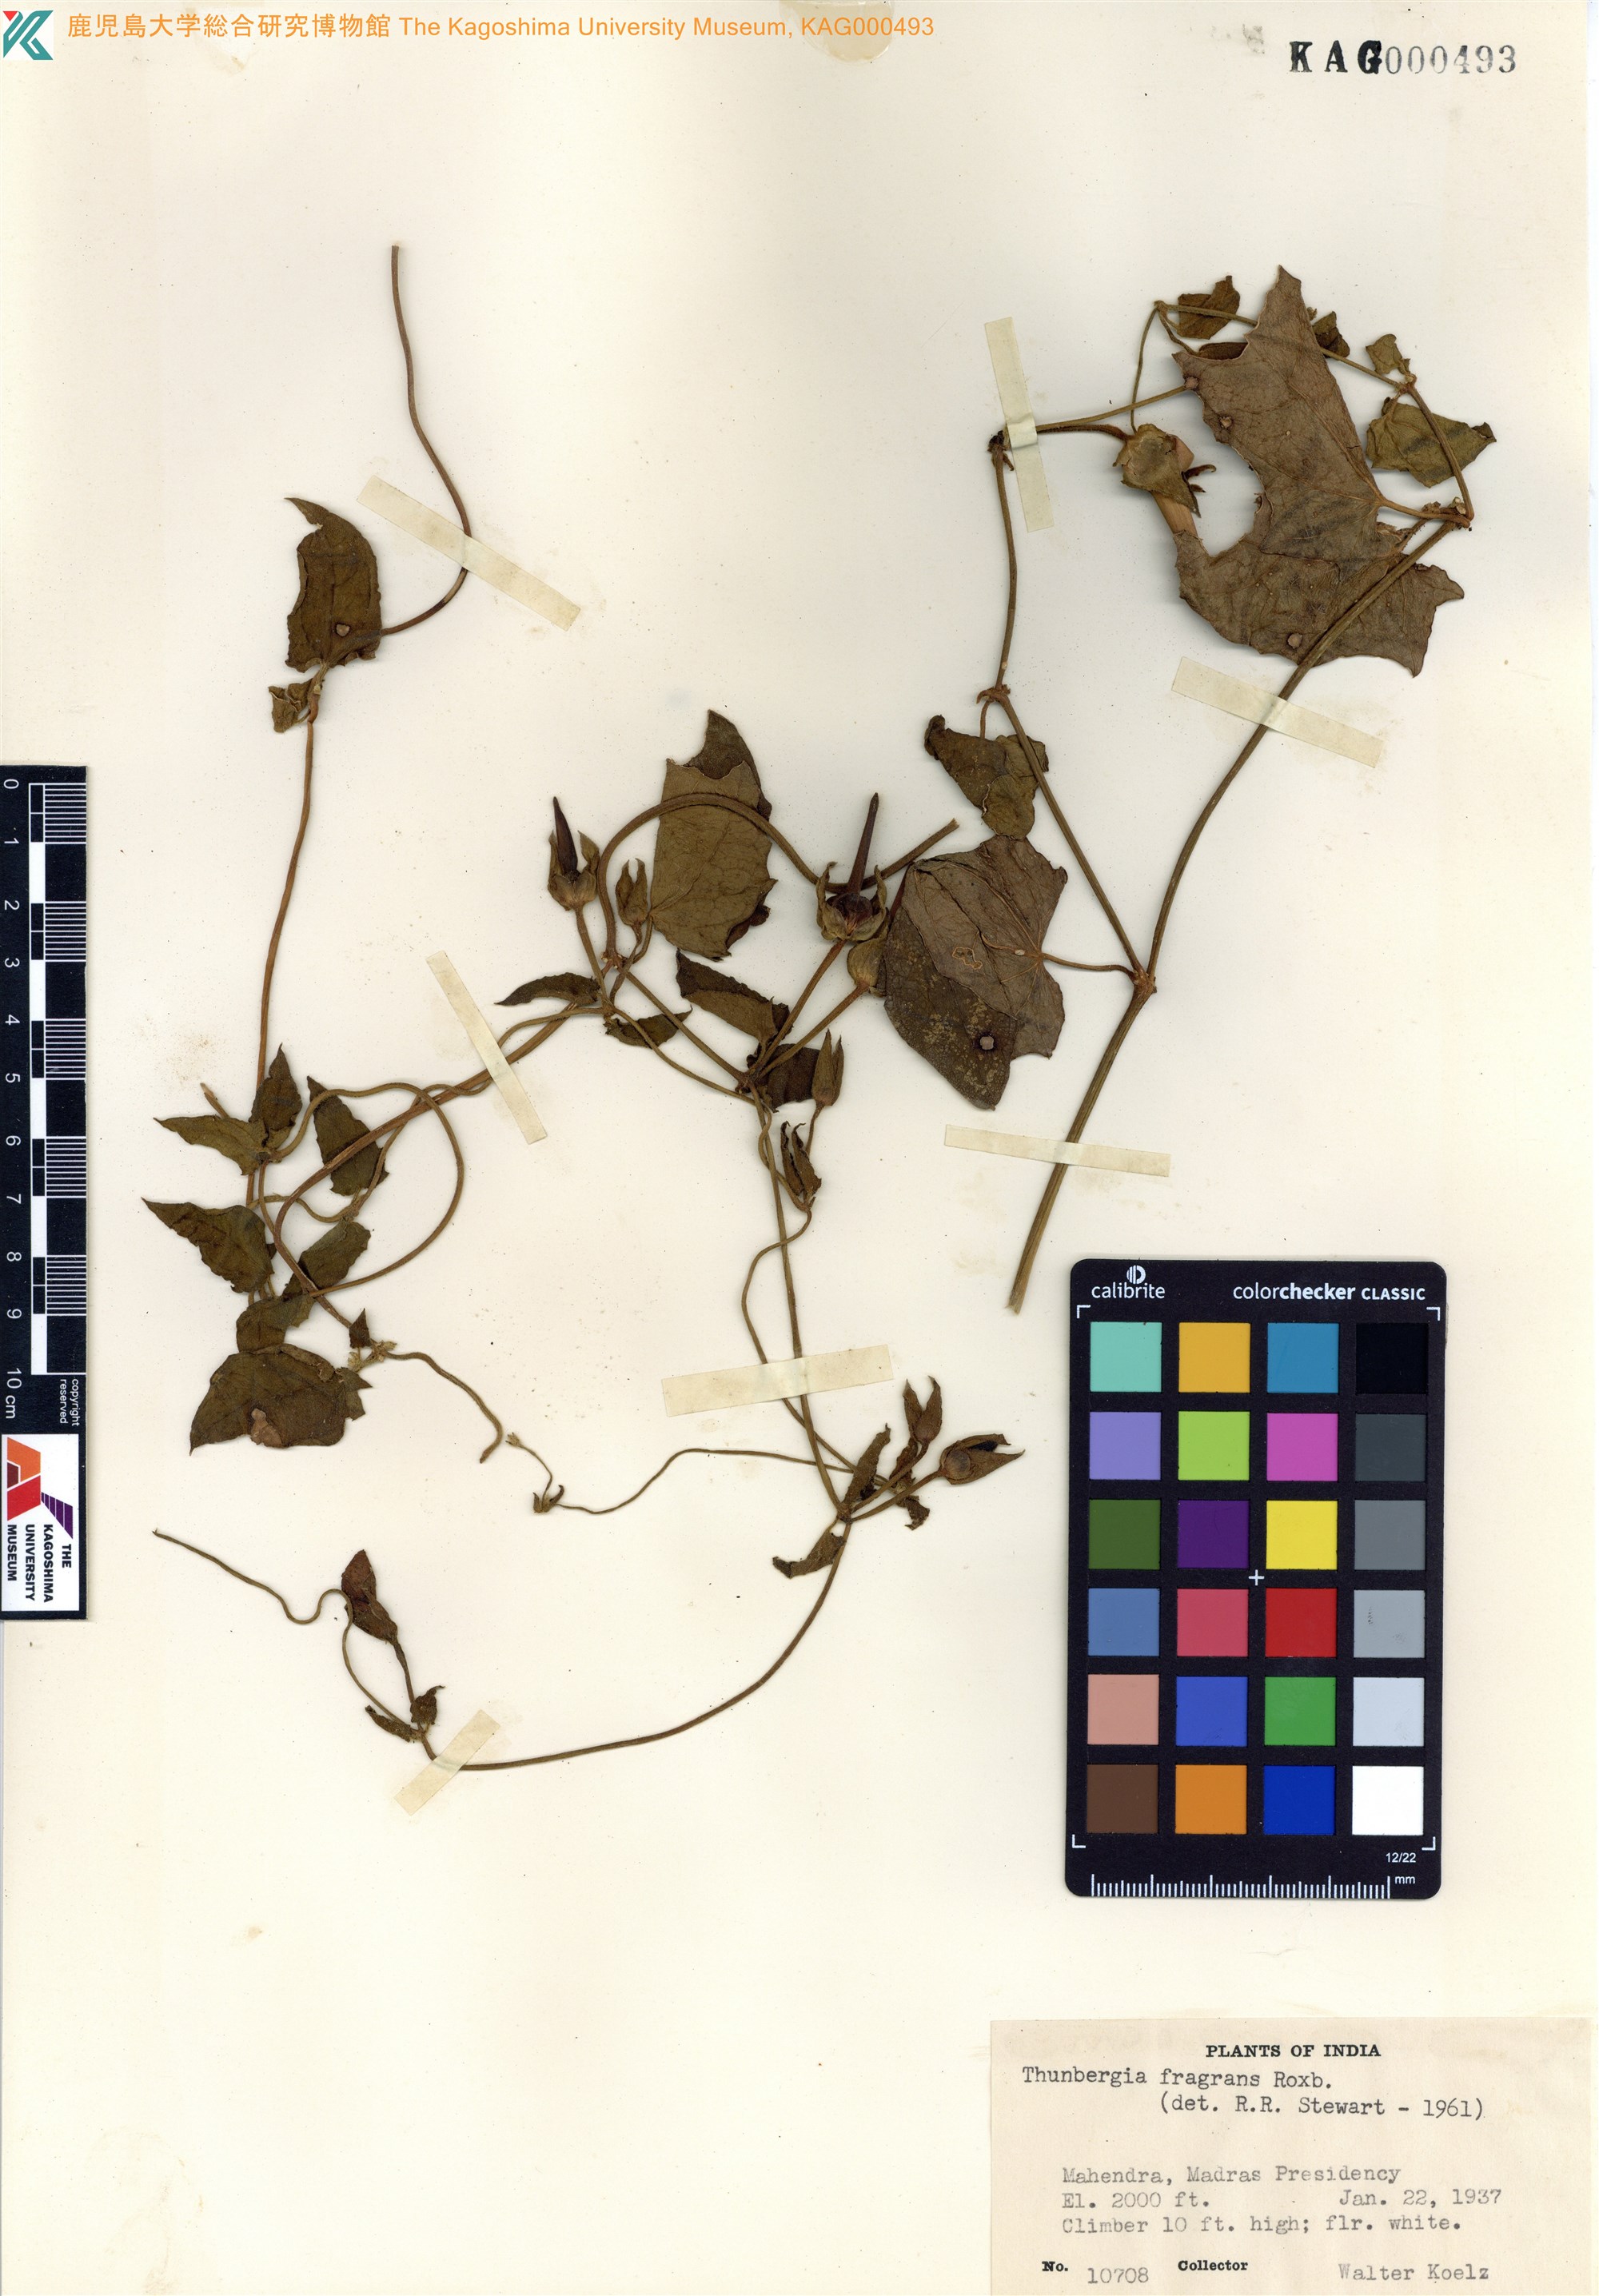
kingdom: Plantae
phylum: Tracheophyta
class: Magnoliopsida
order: Lamiales
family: Acanthaceae
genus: Thunbergia
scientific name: Thunbergia fragrans
